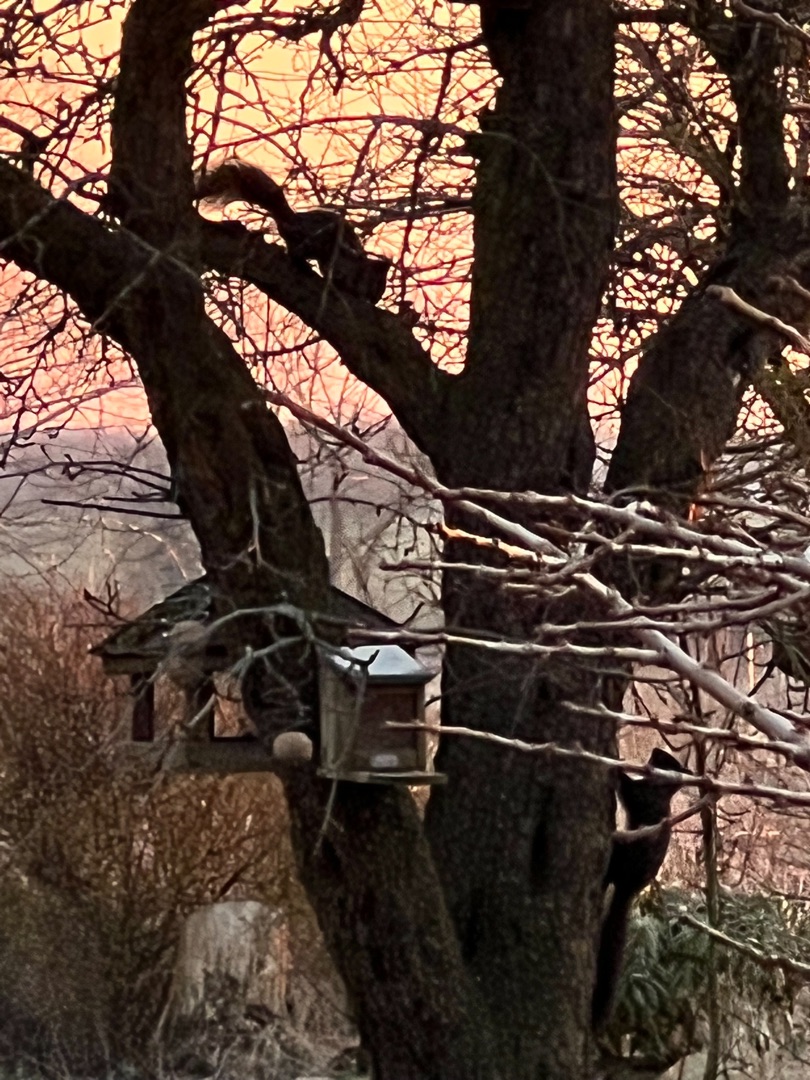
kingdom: Animalia
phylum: Chordata
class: Mammalia
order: Rodentia
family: Sciuridae
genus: Sciurus
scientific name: Sciurus vulgaris
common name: Egern
